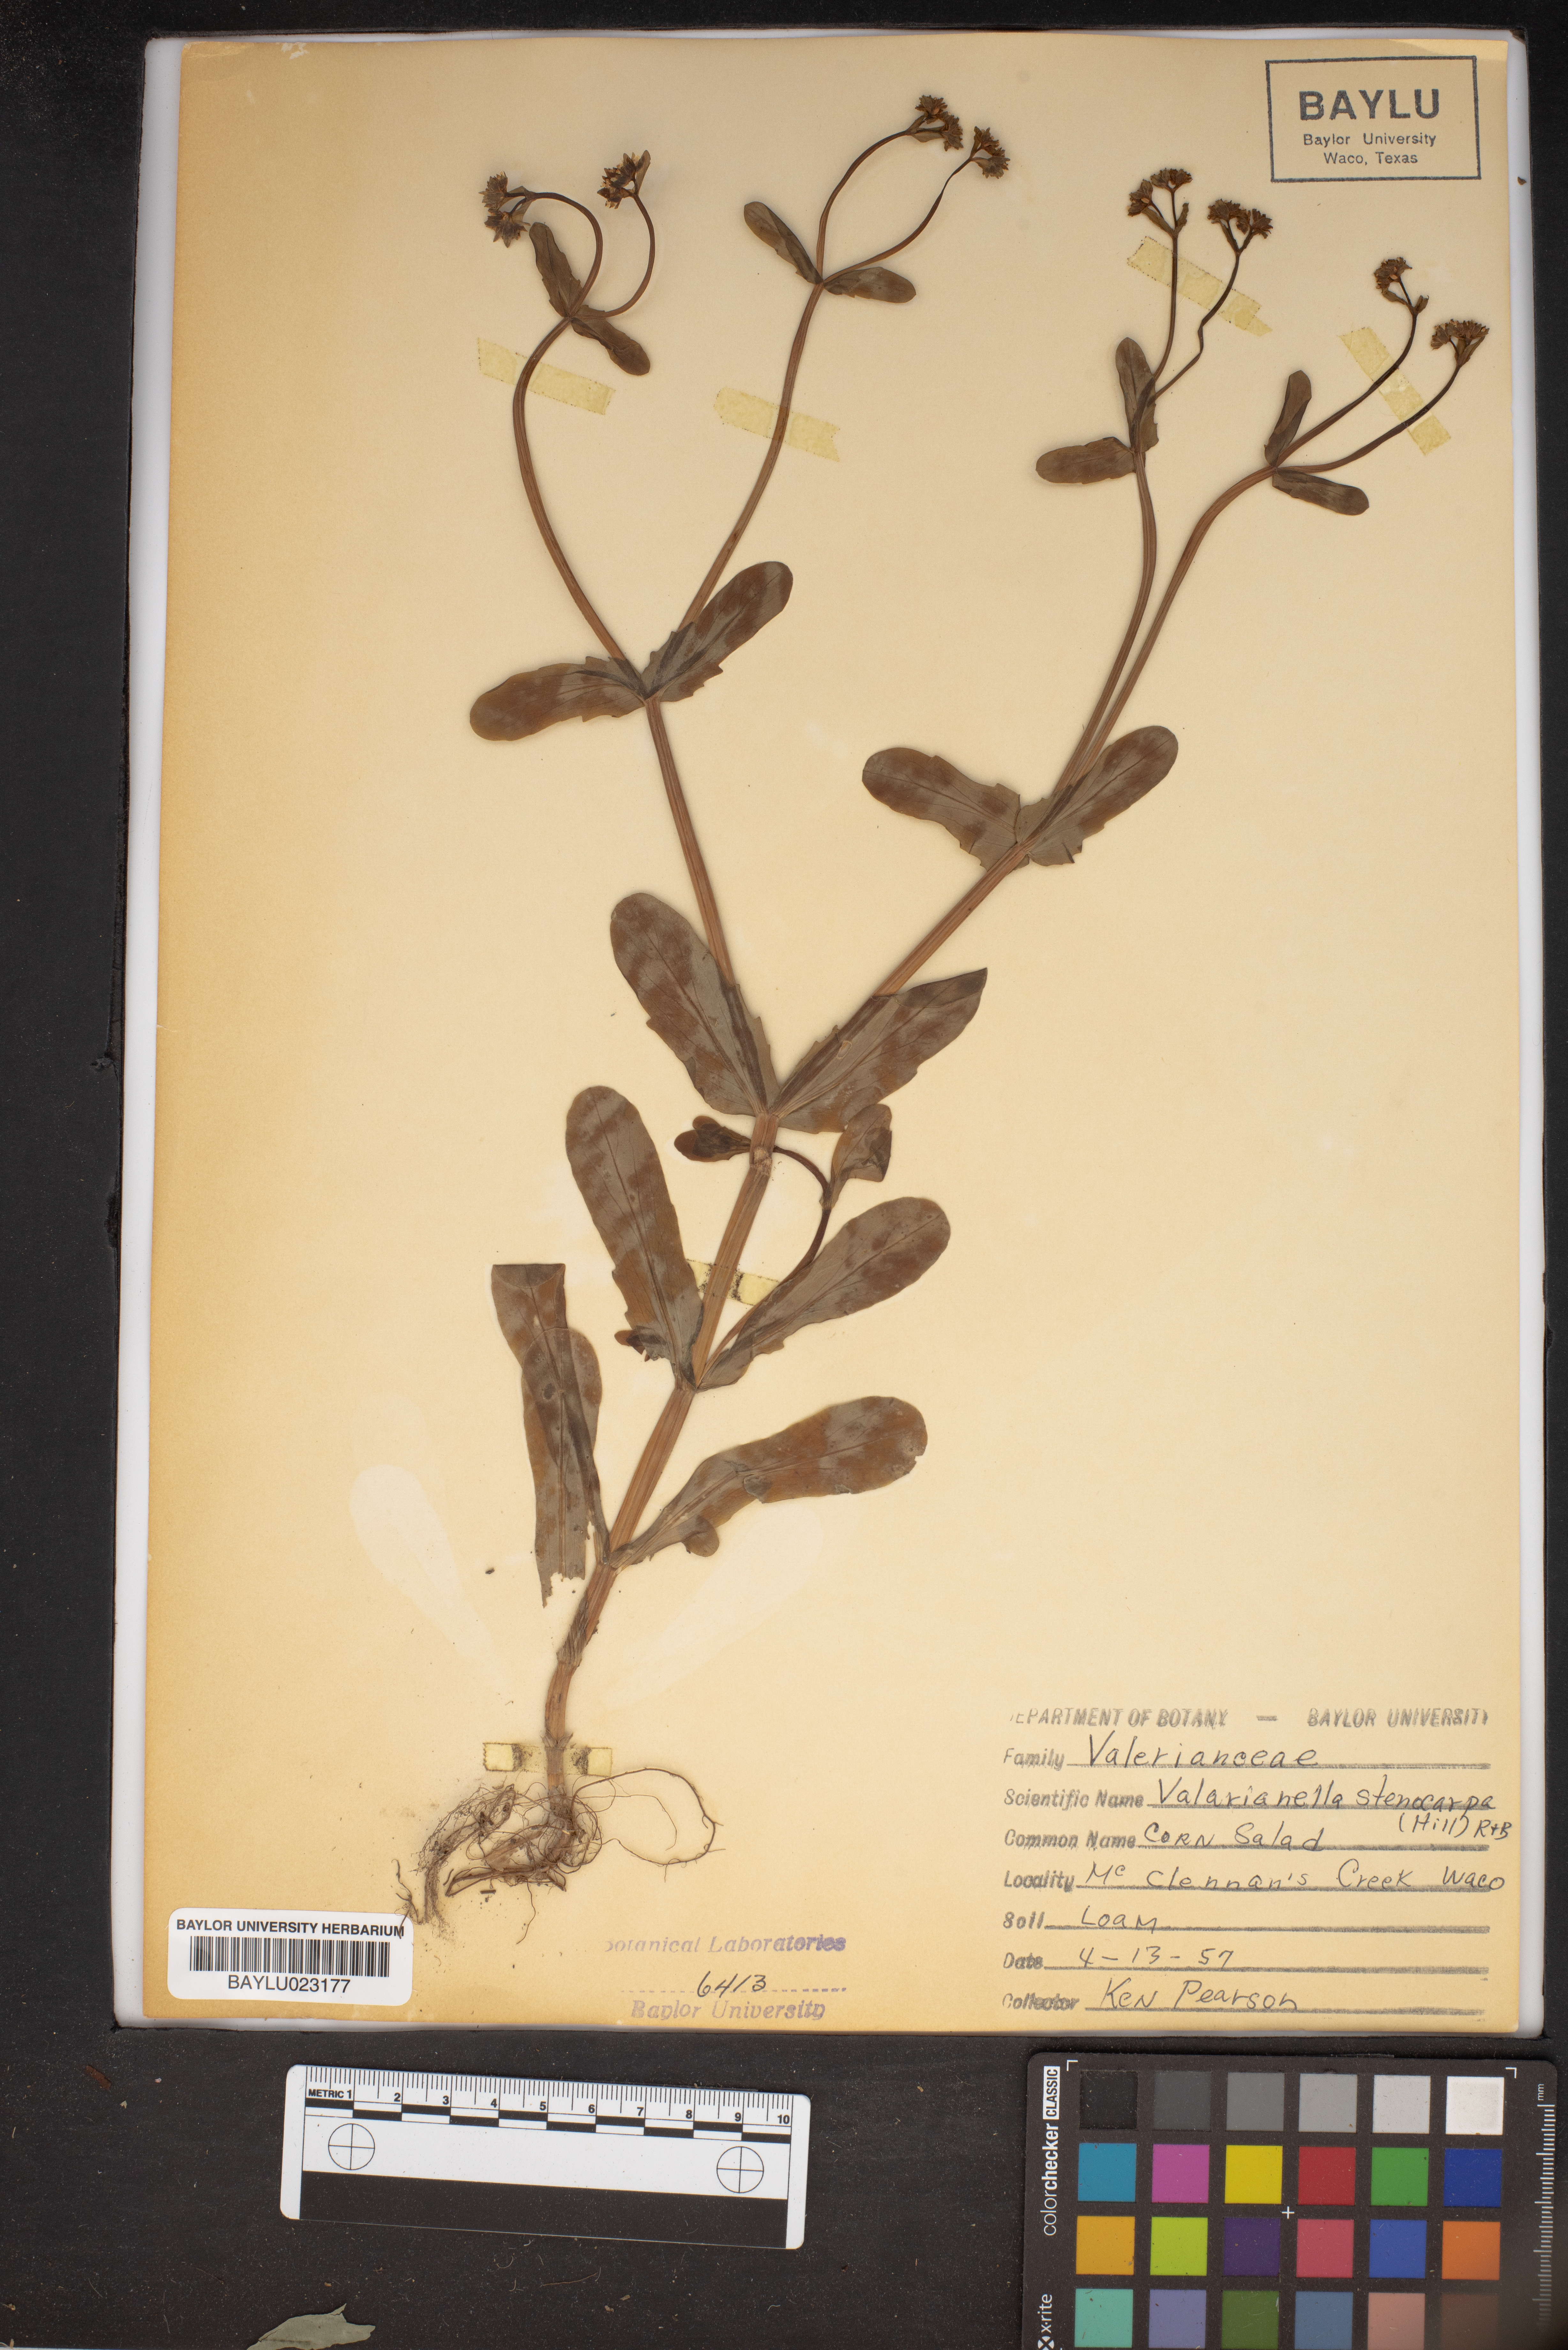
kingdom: Plantae
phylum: Tracheophyta
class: Magnoliopsida
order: Dipsacales
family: Caprifoliaceae
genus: Valerianella
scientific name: Valerianella stenocarpa
